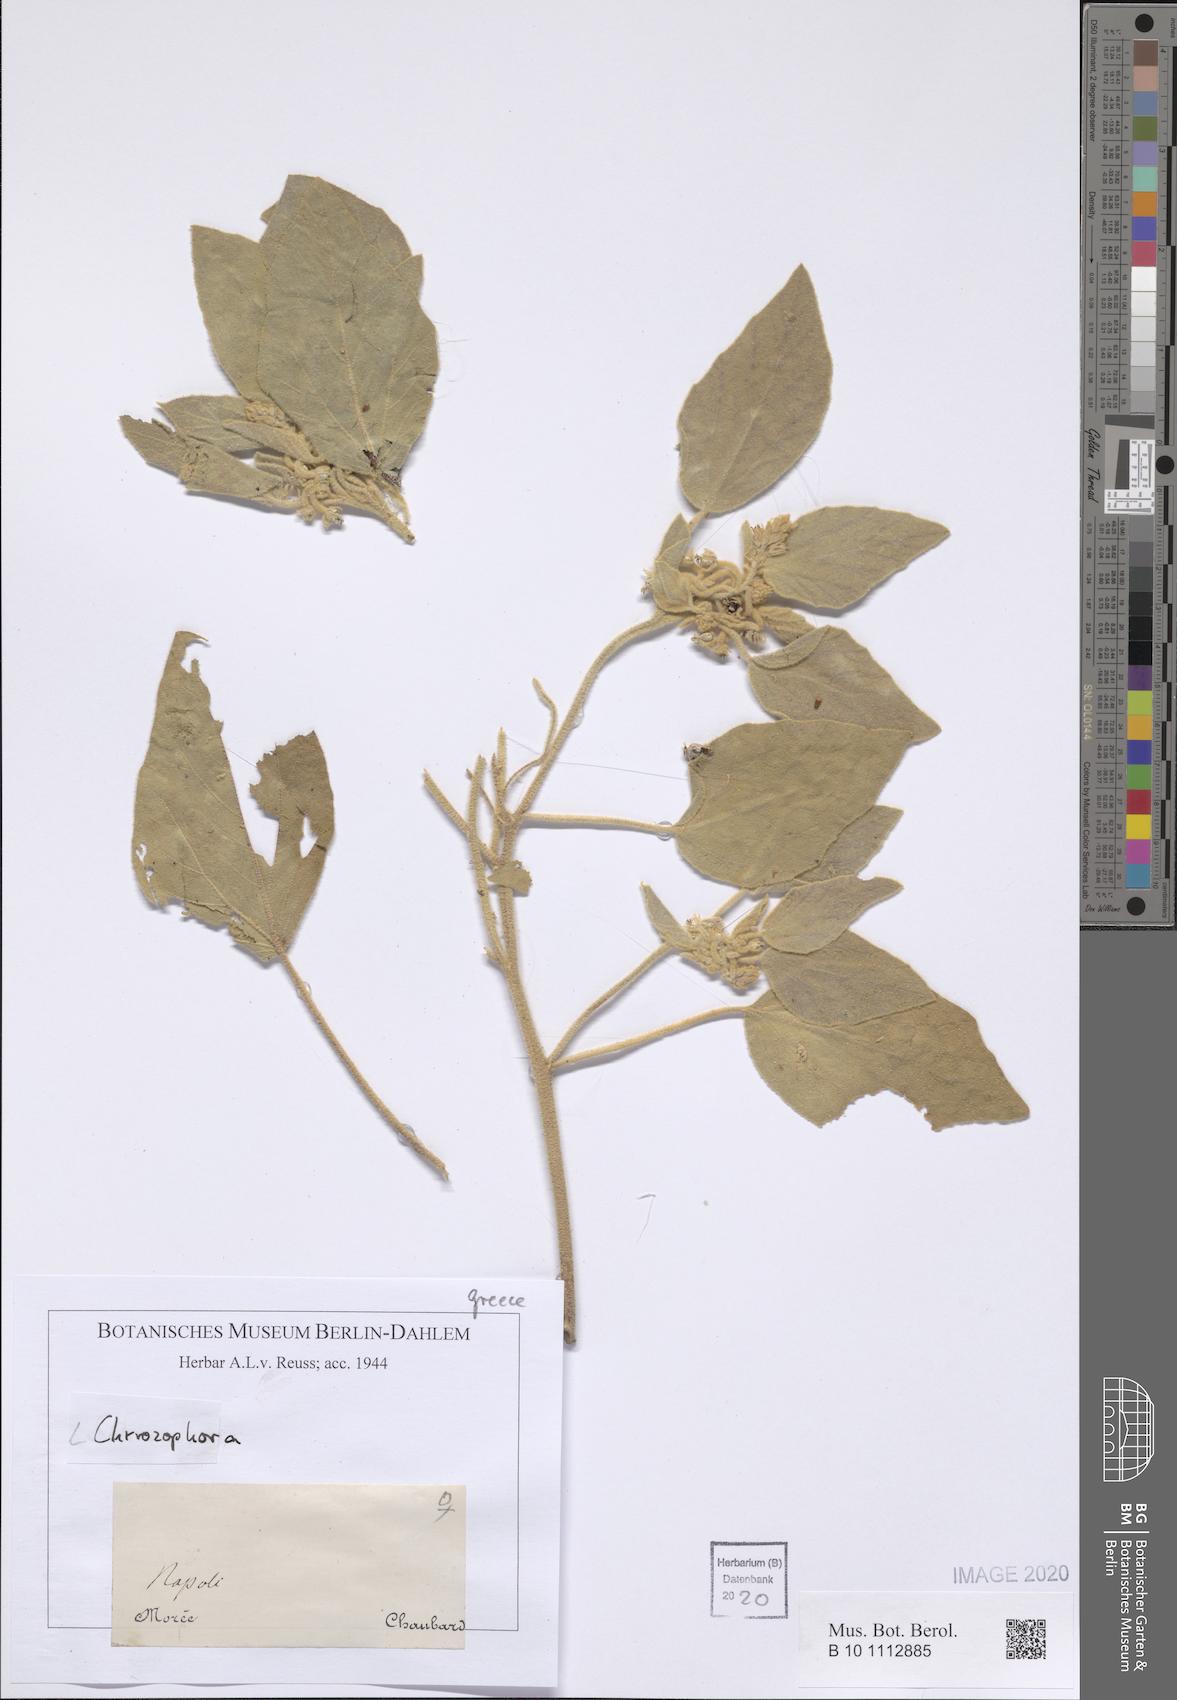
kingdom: Plantae
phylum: Tracheophyta
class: Magnoliopsida
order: Malpighiales
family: Euphorbiaceae
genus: Chrozophora
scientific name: Chrozophora
